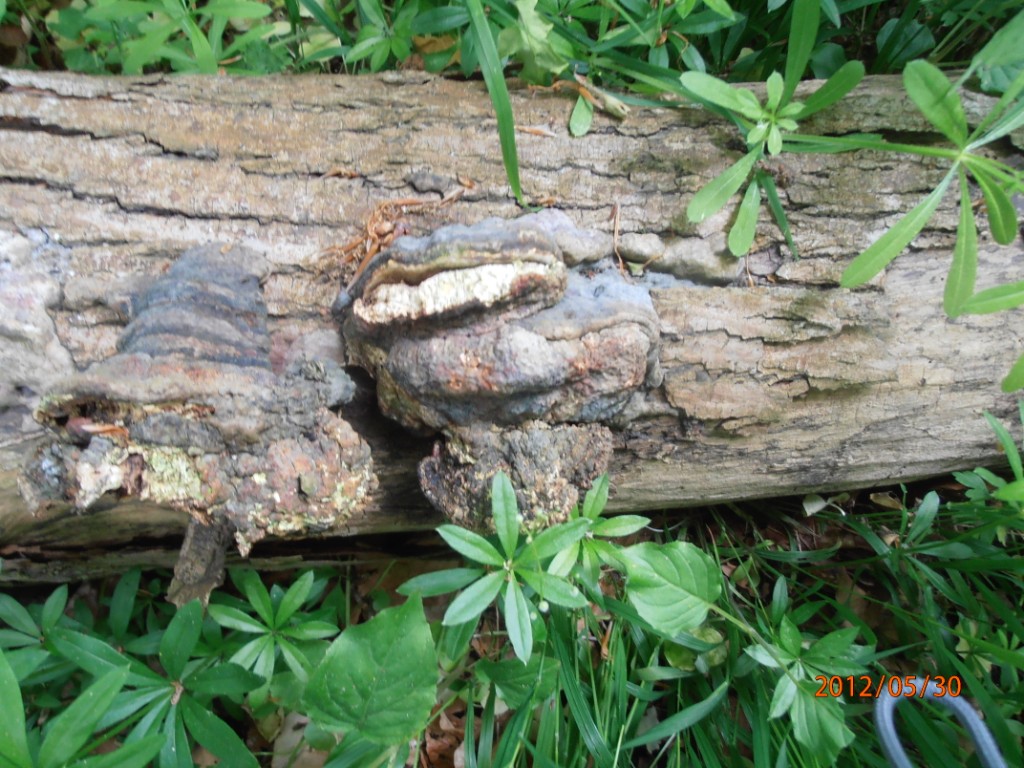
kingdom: Fungi
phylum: Basidiomycota
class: Agaricomycetes
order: Polyporales
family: Polyporaceae
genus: Fomes
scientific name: Fomes fomentarius
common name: tøndersvamp
